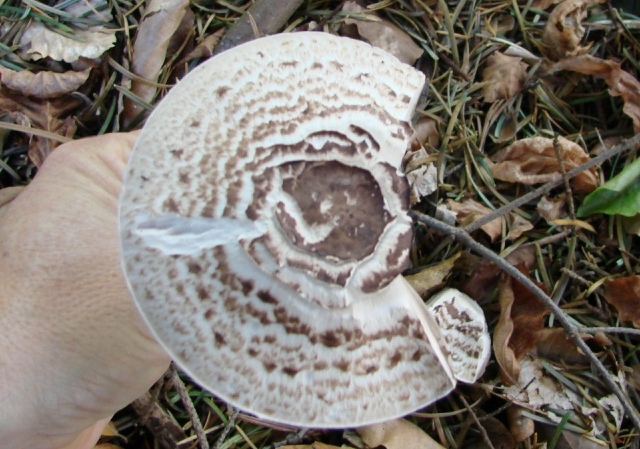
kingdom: Fungi
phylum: Basidiomycota
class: Agaricomycetes
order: Agaricales
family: Agaricaceae
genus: Agaricus
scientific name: Agaricus impudicus
